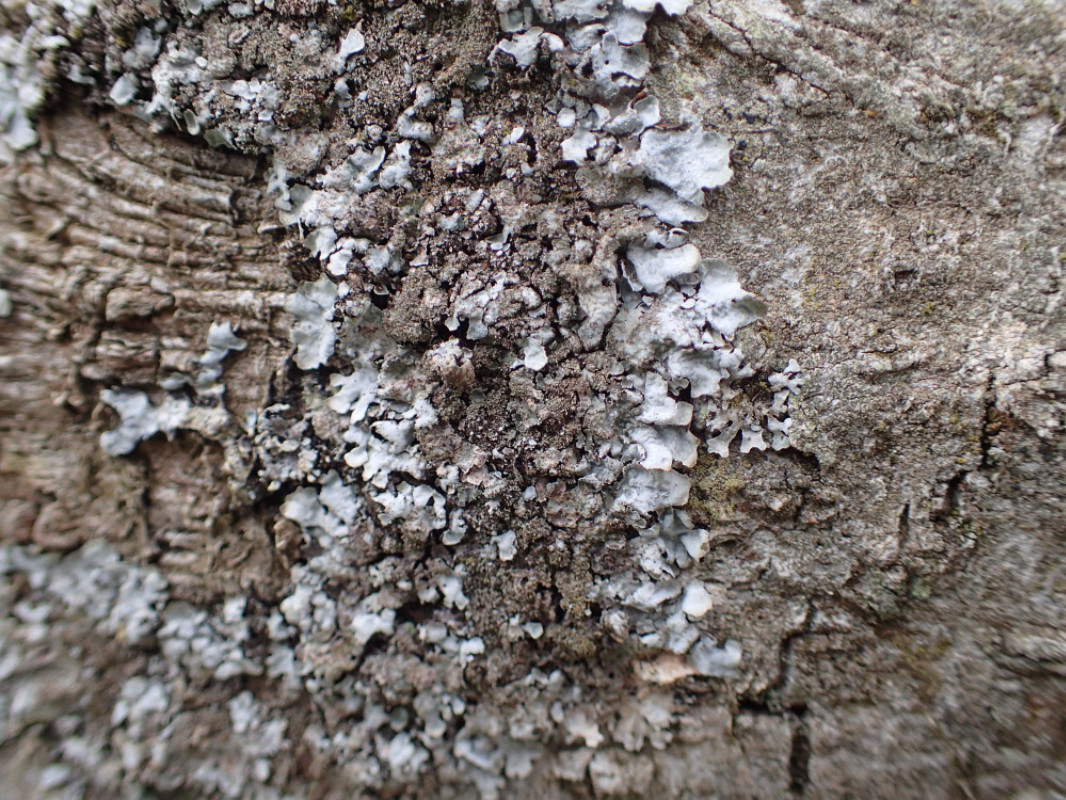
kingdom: Fungi
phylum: Ascomycota
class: Lecanoromycetes
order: Lecanorales
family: Parmeliaceae
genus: Parmelia
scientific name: Parmelia ernstiae
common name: rimstift-skållav
